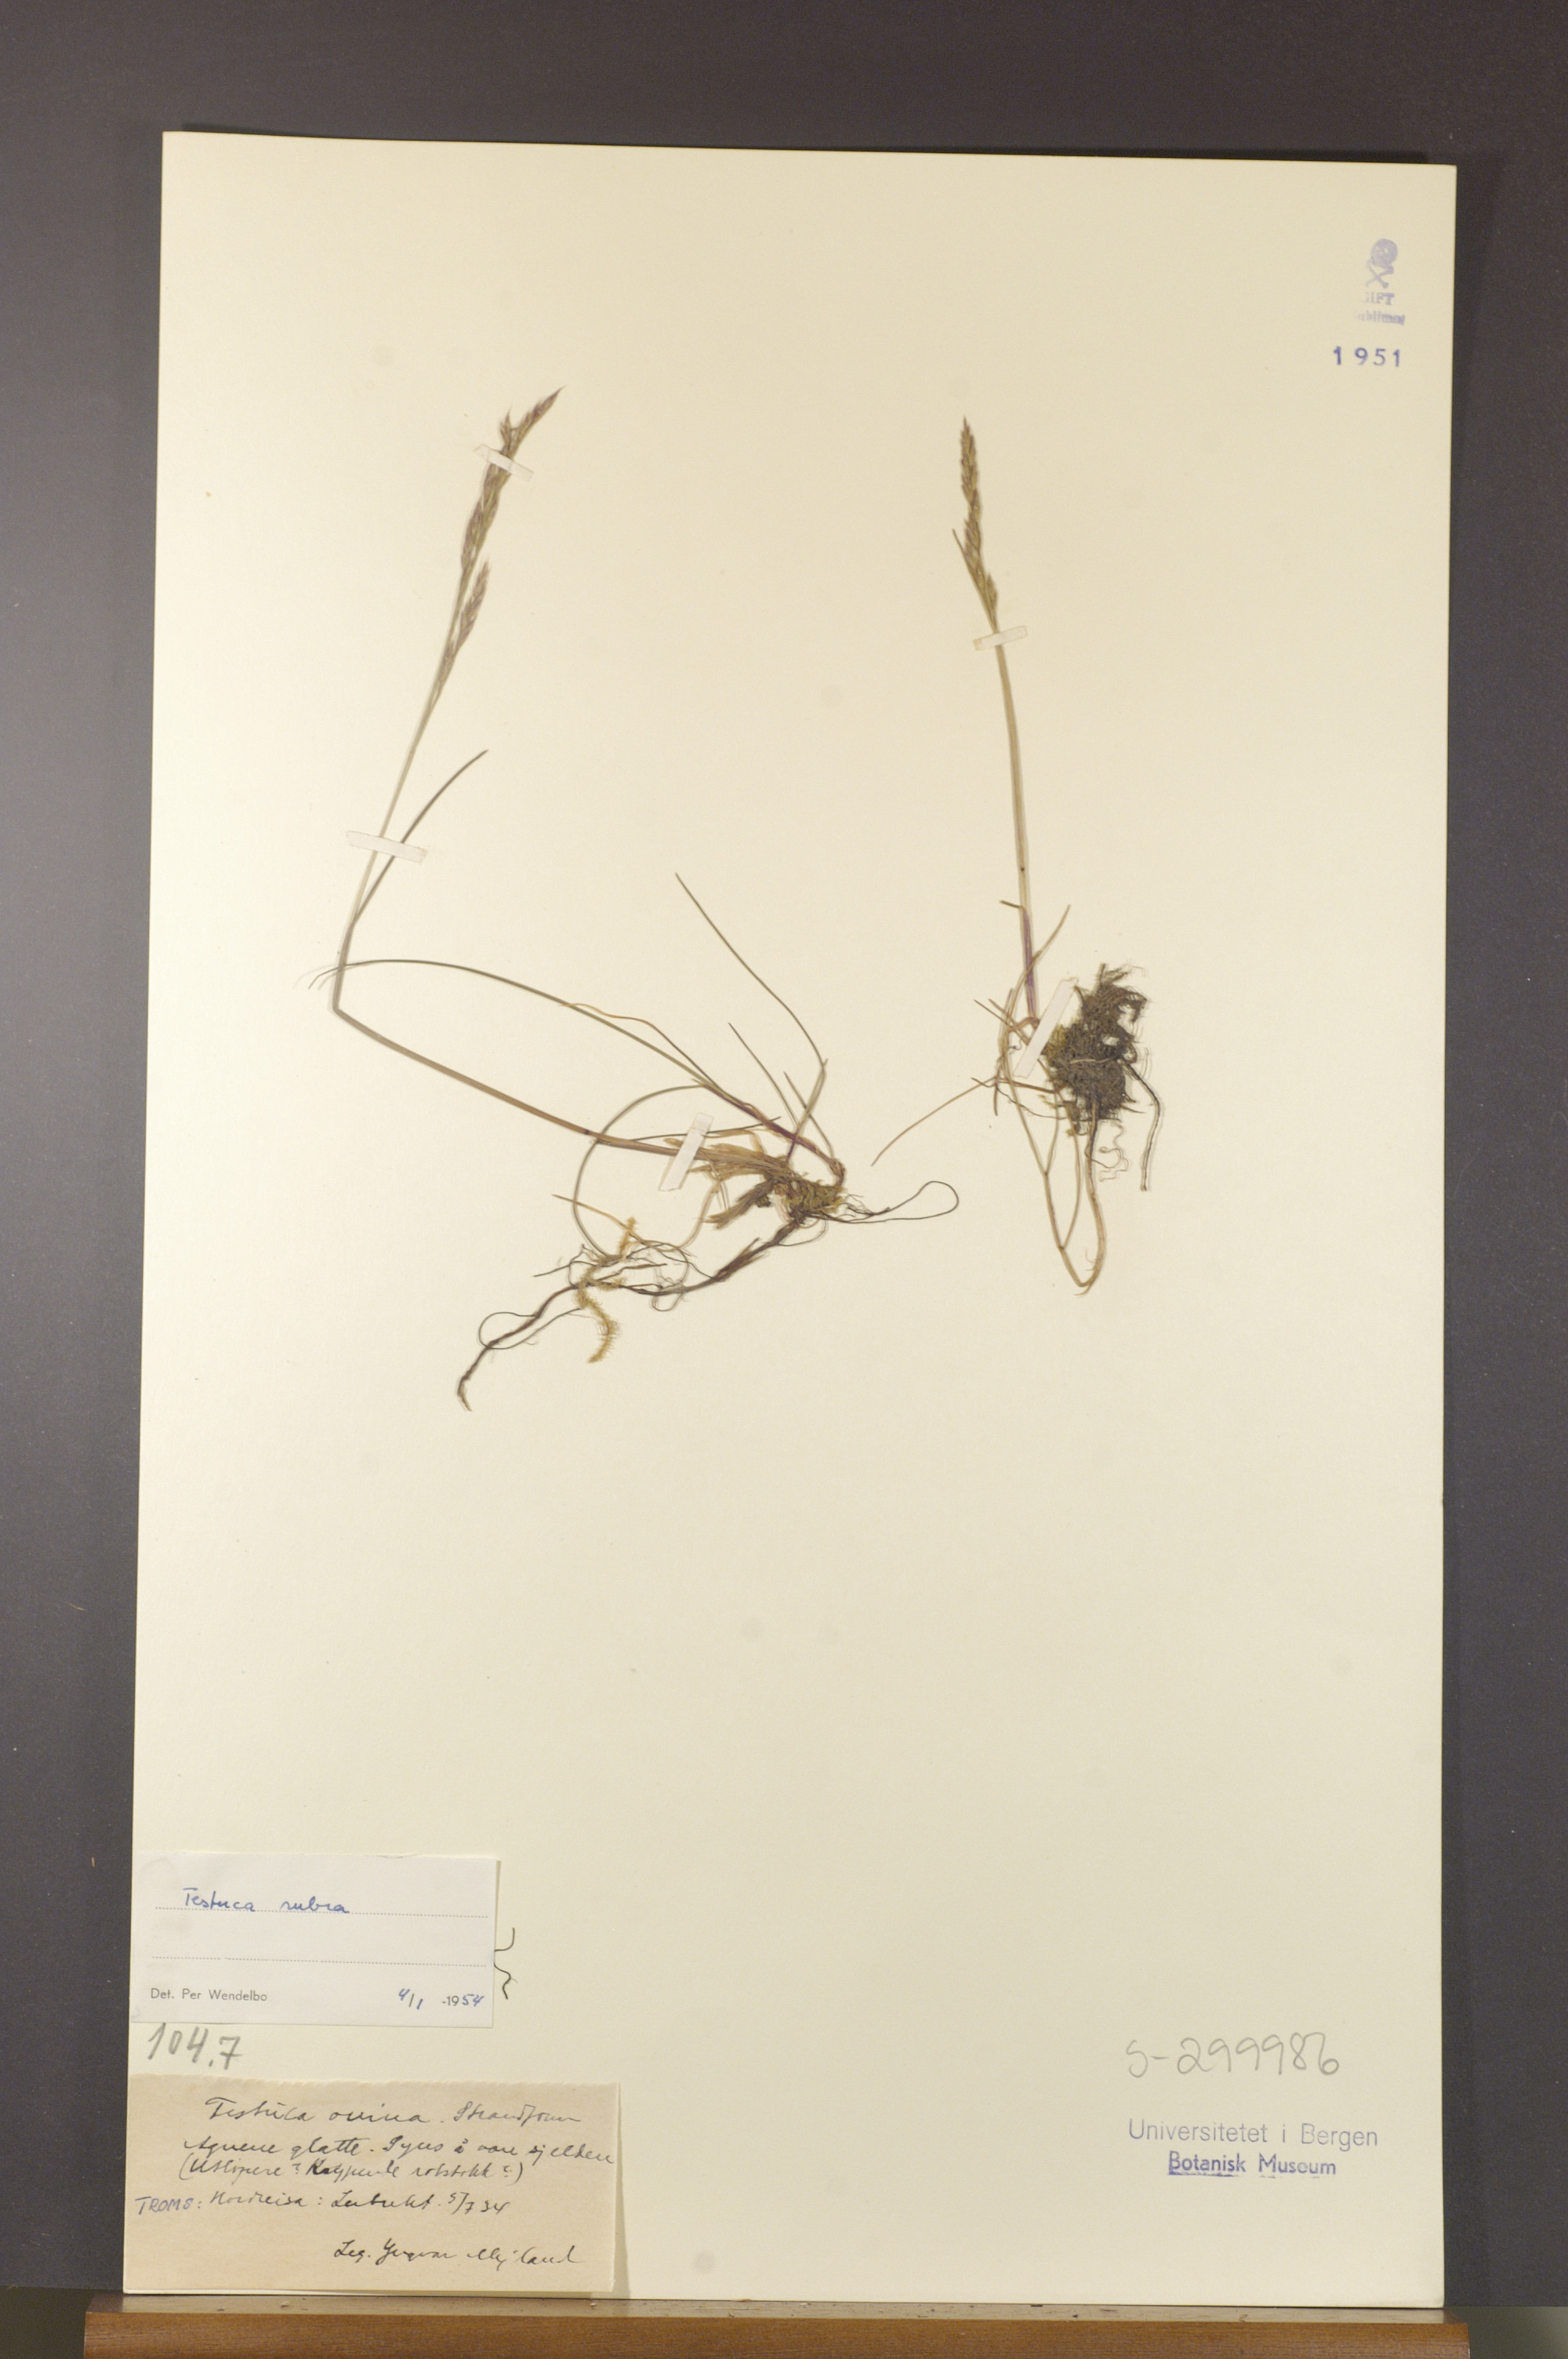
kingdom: Plantae
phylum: Tracheophyta
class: Liliopsida
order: Poales
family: Poaceae
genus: Festuca
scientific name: Festuca rubra
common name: Red fescue
